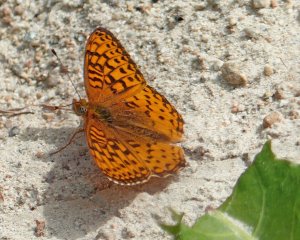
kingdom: Animalia
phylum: Arthropoda
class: Insecta
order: Lepidoptera
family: Nymphalidae
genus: Speyeria
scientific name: Speyeria atlantis
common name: Northwestern Fritillary
